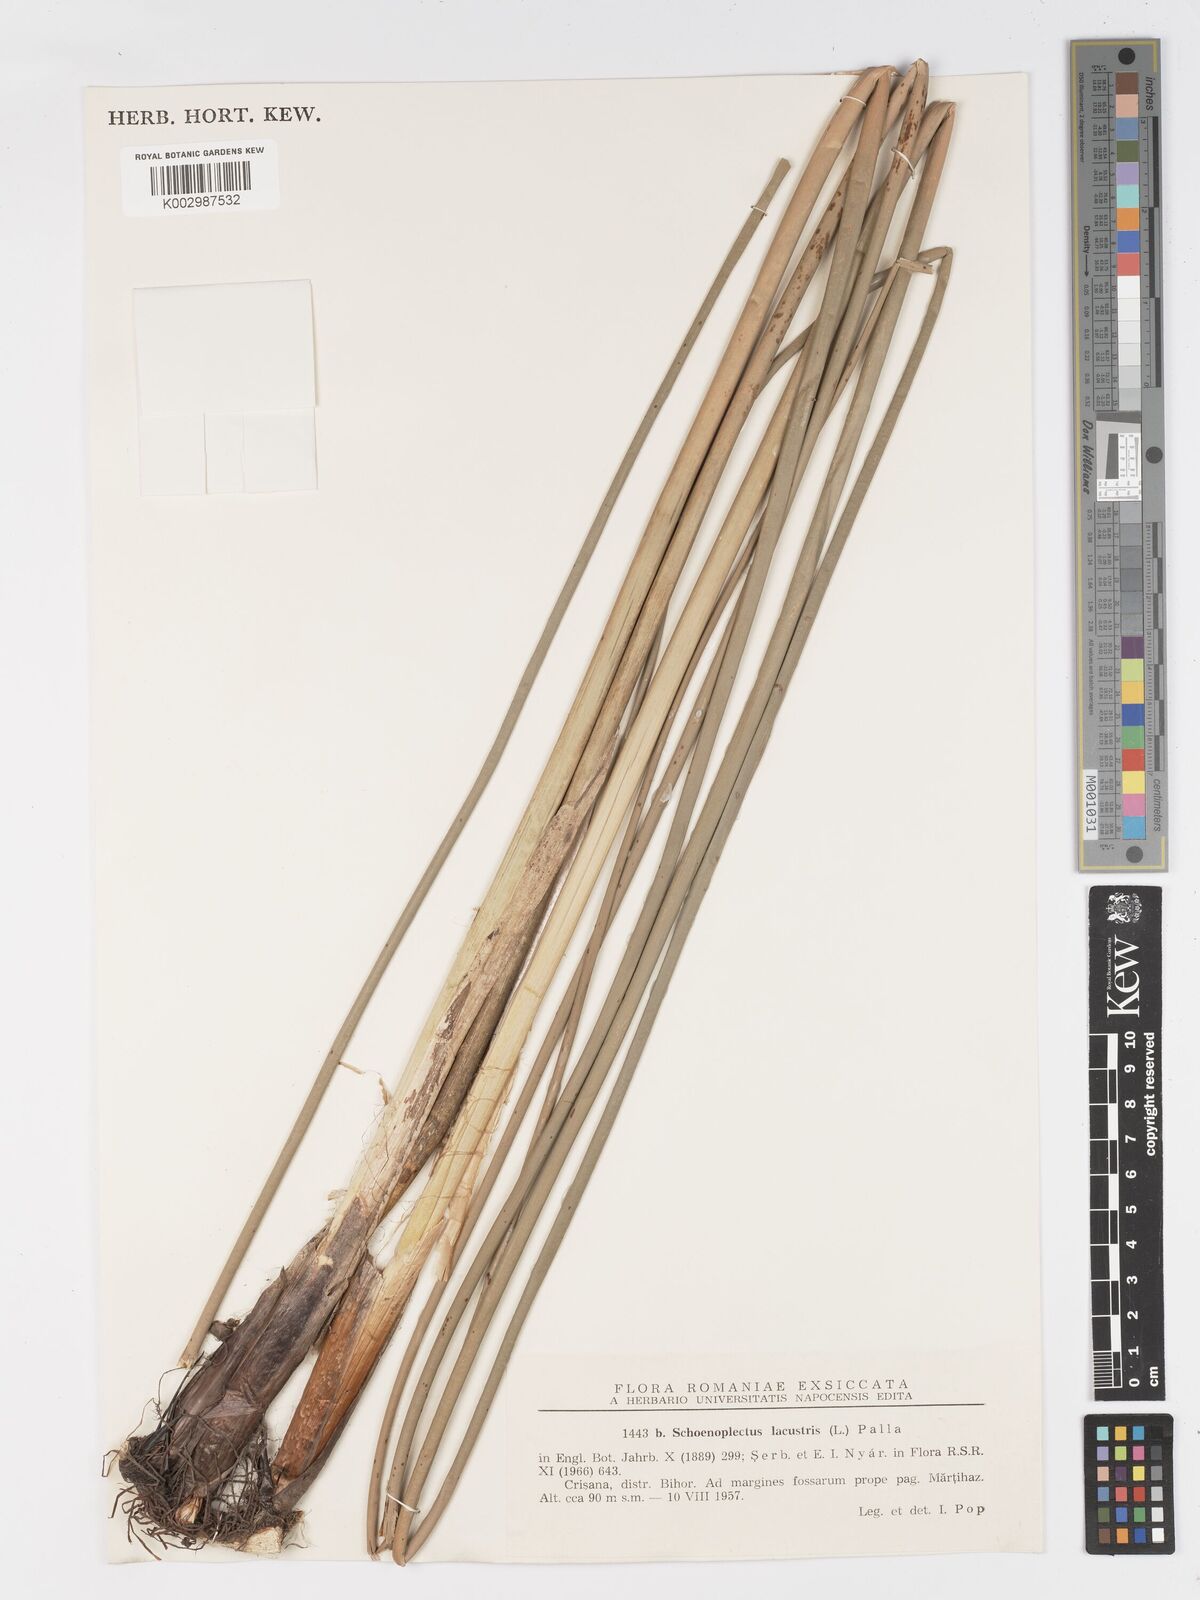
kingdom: Plantae
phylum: Tracheophyta
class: Liliopsida
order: Poales
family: Cyperaceae
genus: Schoenoplectus
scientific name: Schoenoplectus lacustris
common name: Common club-rush
